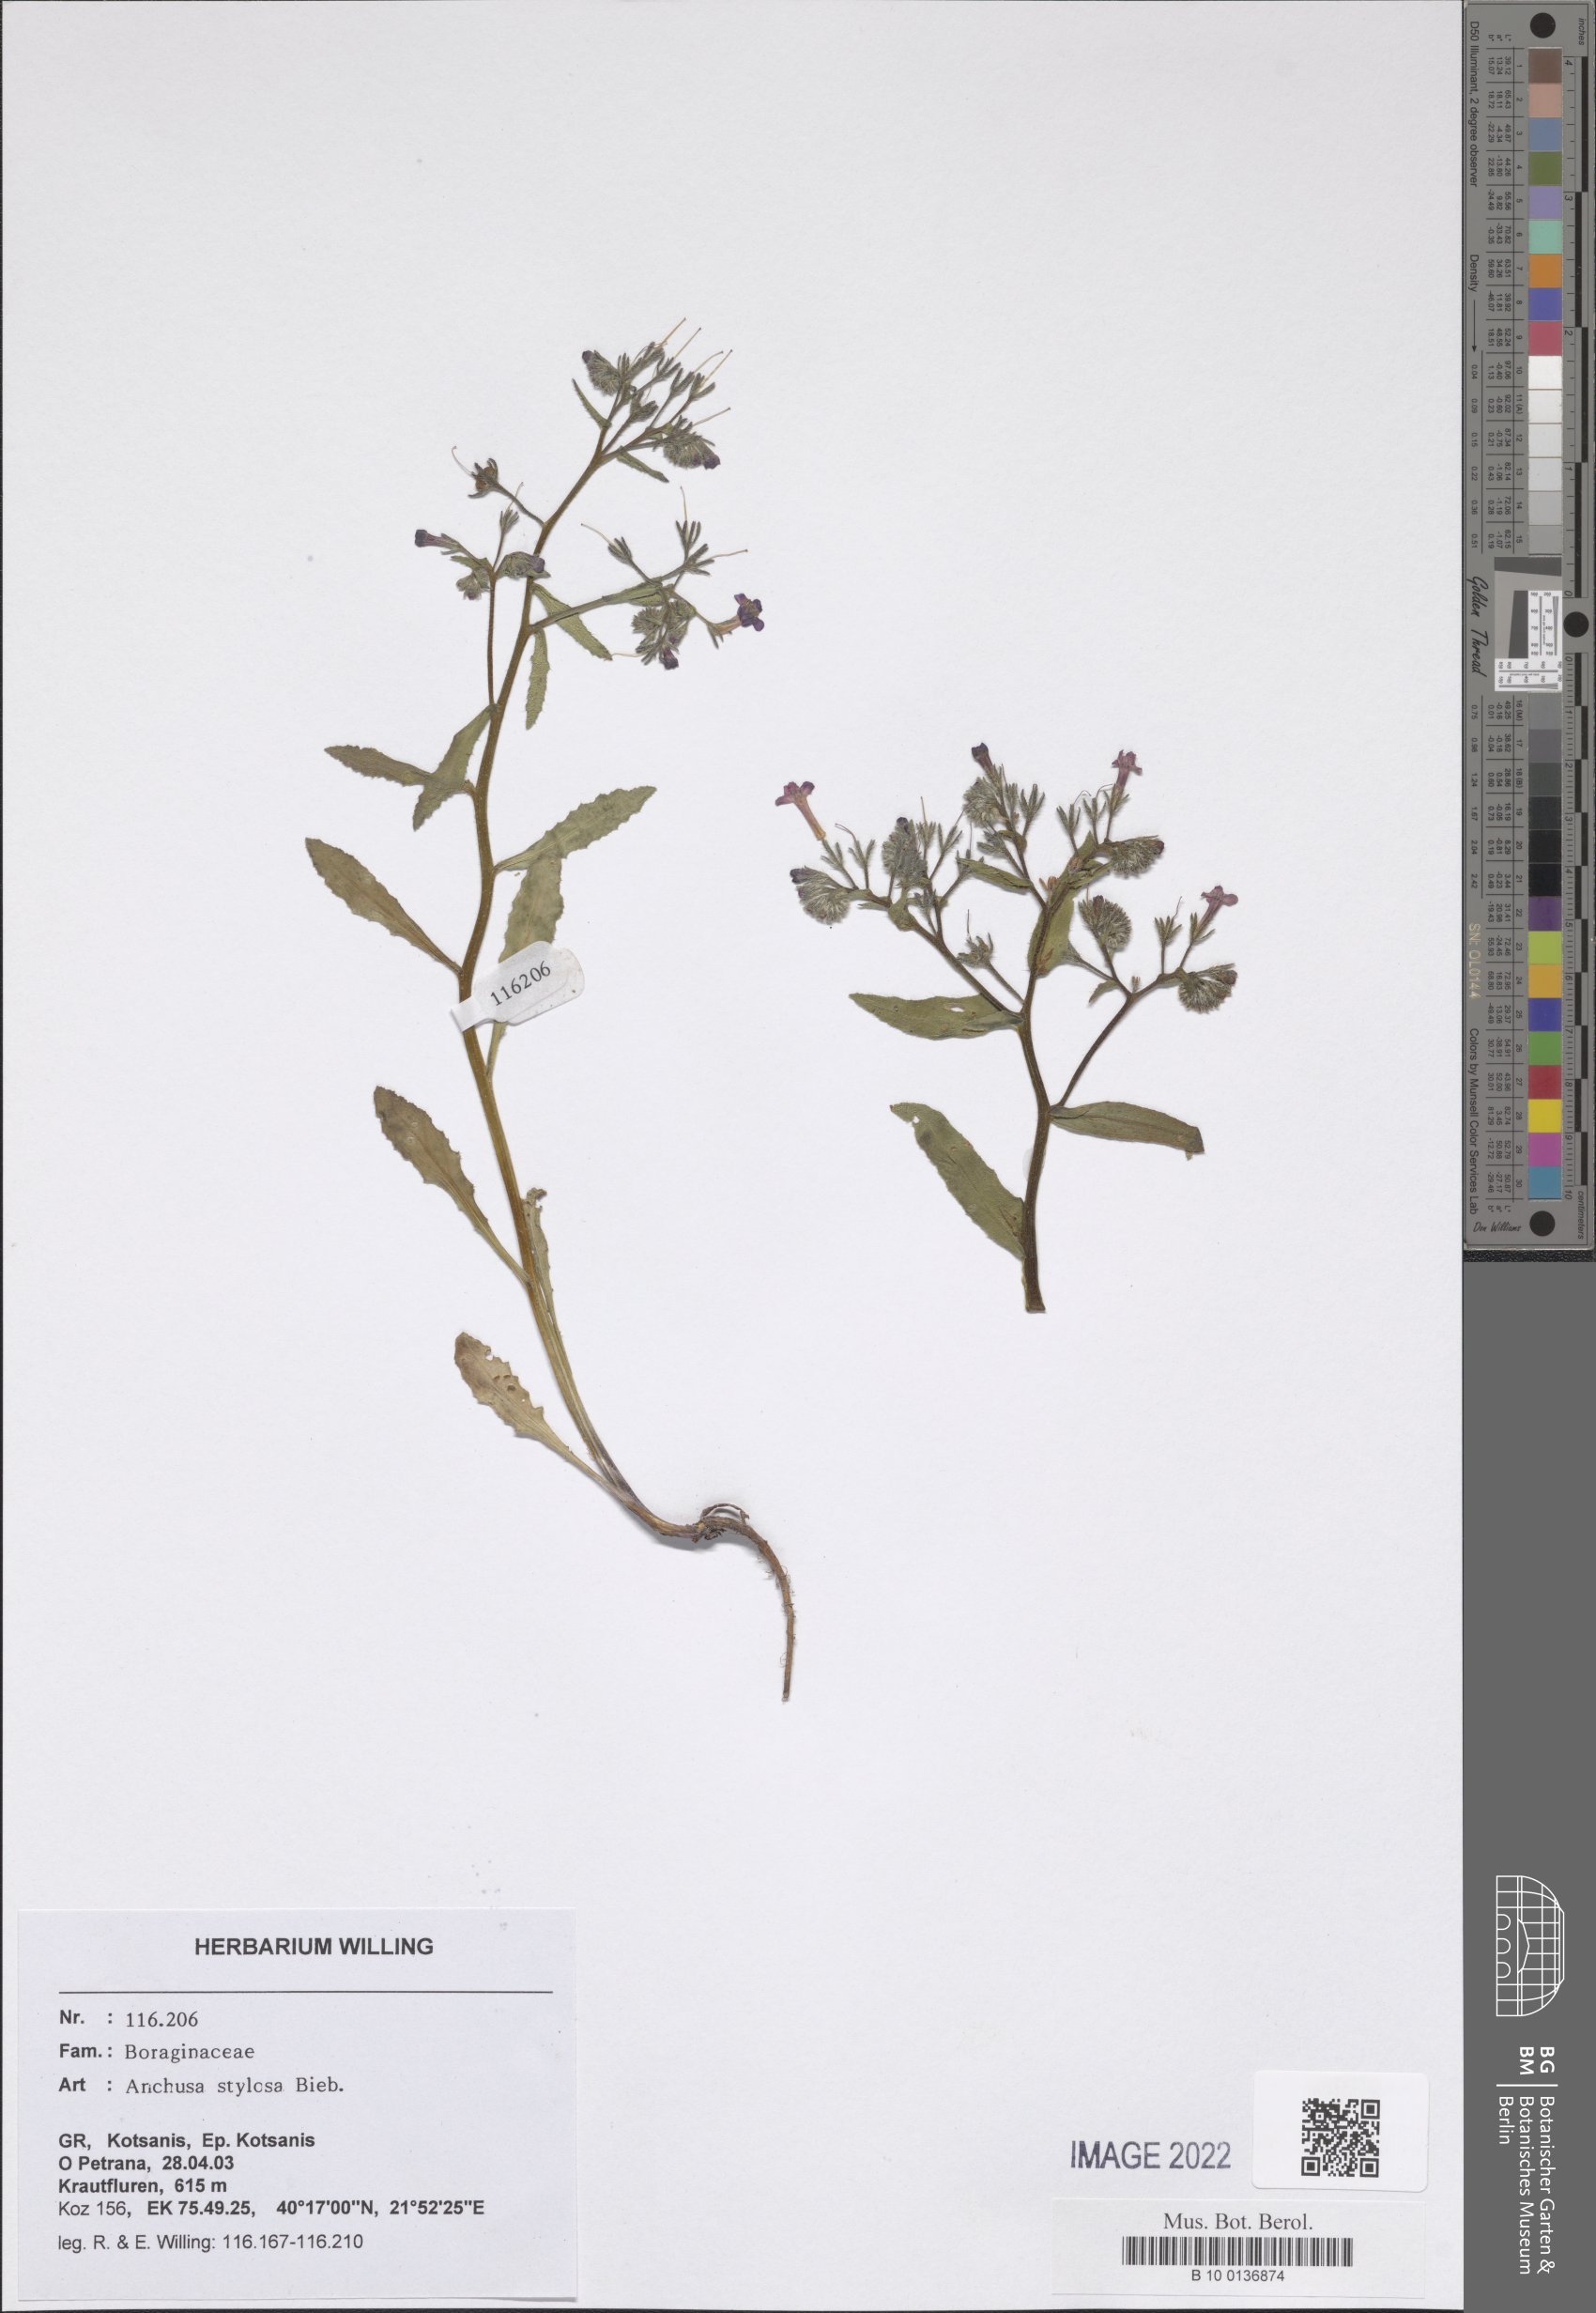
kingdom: Plantae
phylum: Tracheophyta
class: Magnoliopsida
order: Boraginales
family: Boraginaceae
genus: Anchusa
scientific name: Anchusa stylosa
